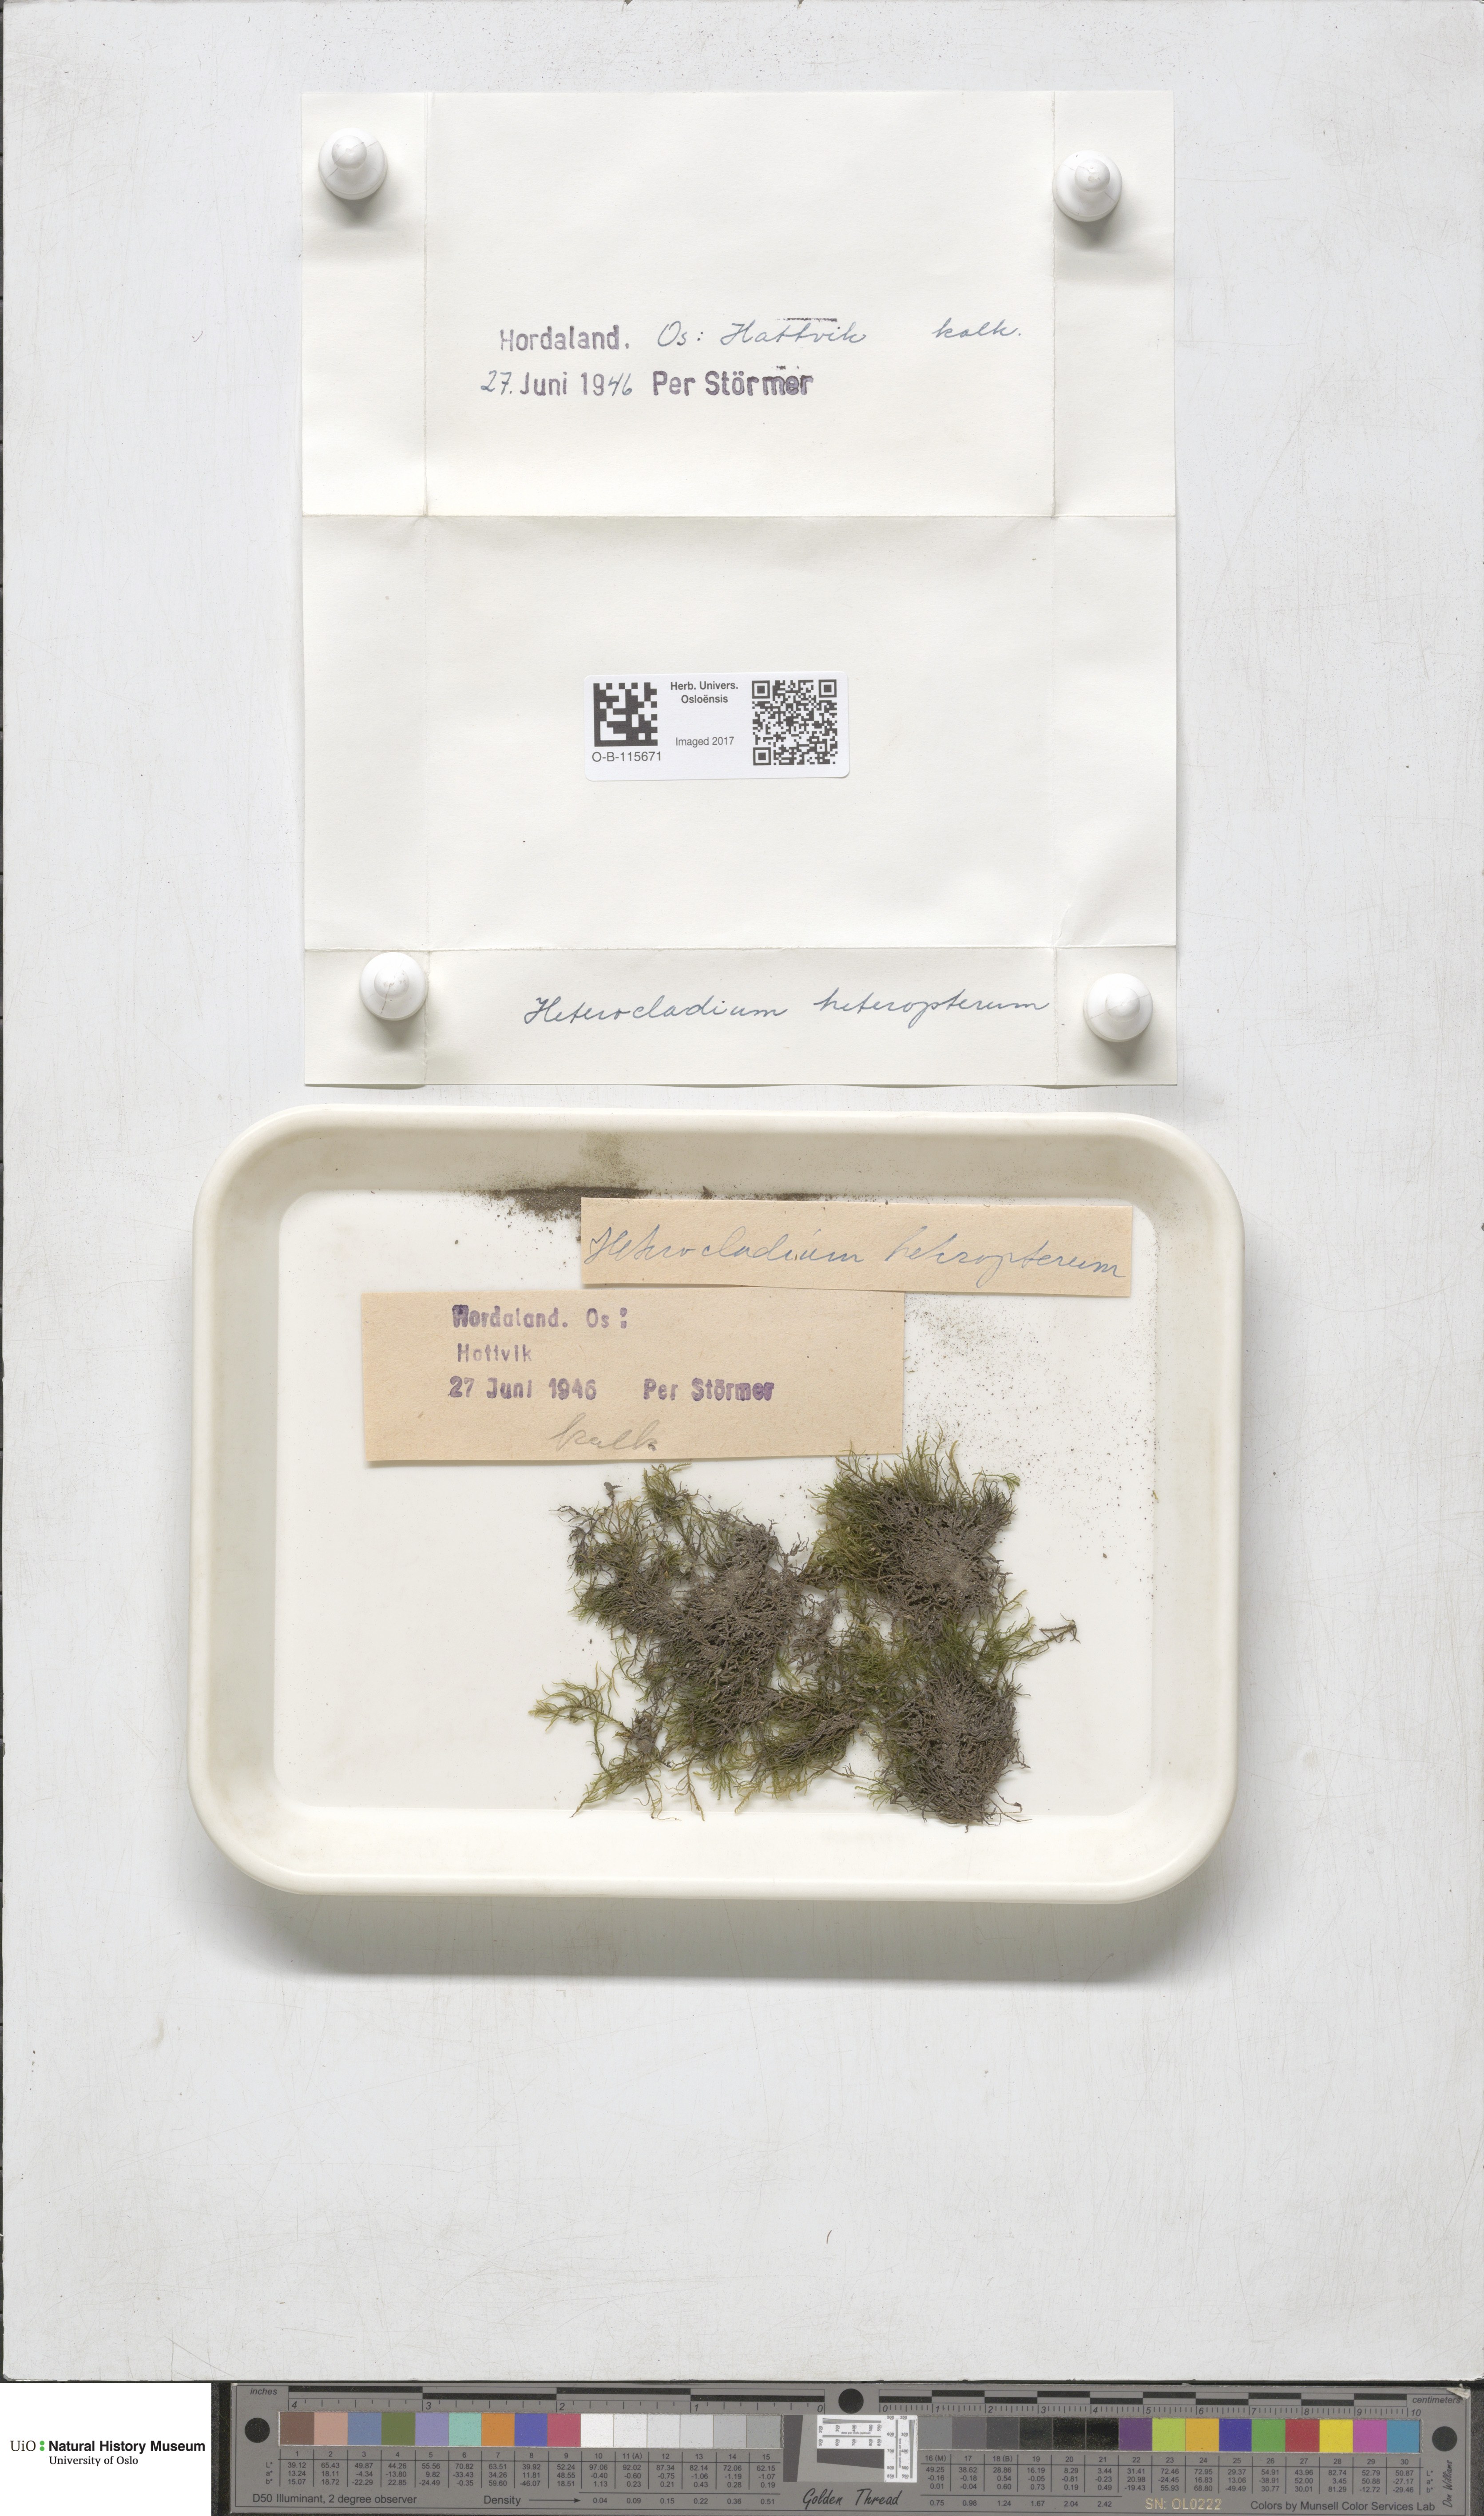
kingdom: Plantae
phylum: Bryophyta
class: Bryopsida
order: Hypnales
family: Lembophyllaceae
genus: Heterocladium
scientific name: Heterocladium heteropterum
